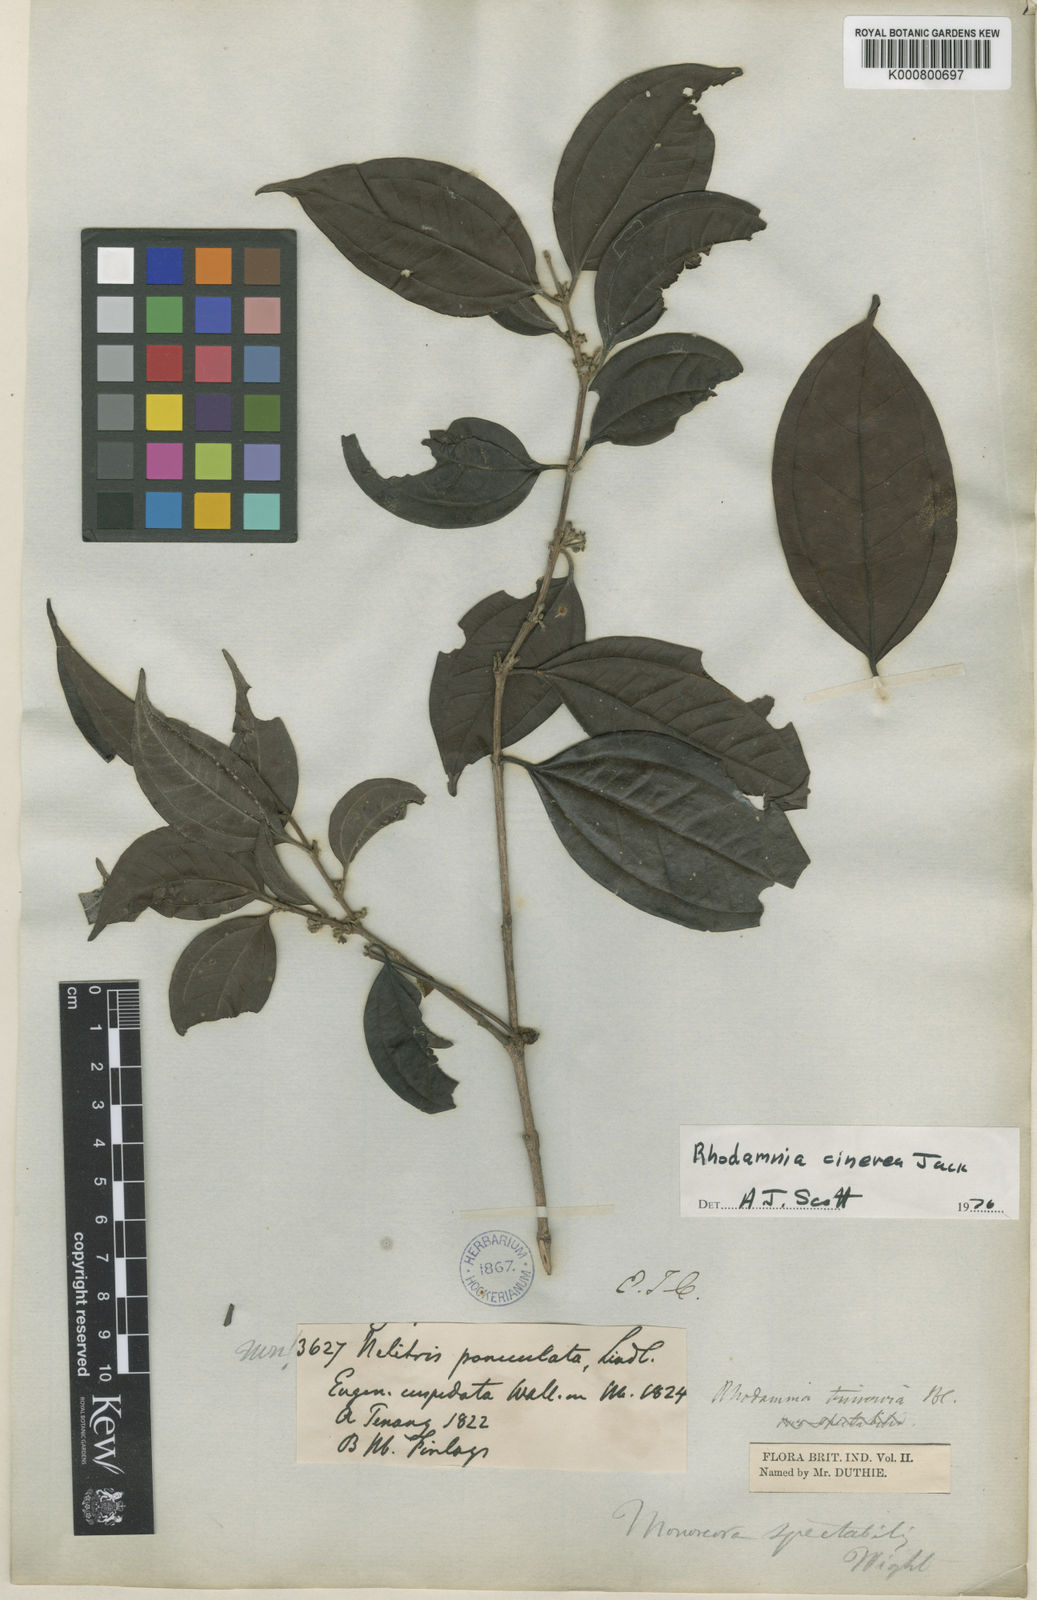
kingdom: Plantae
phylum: Tracheophyta
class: Magnoliopsida
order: Myrtales
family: Myrtaceae
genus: Rhodamnia
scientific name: Rhodamnia cinerea
